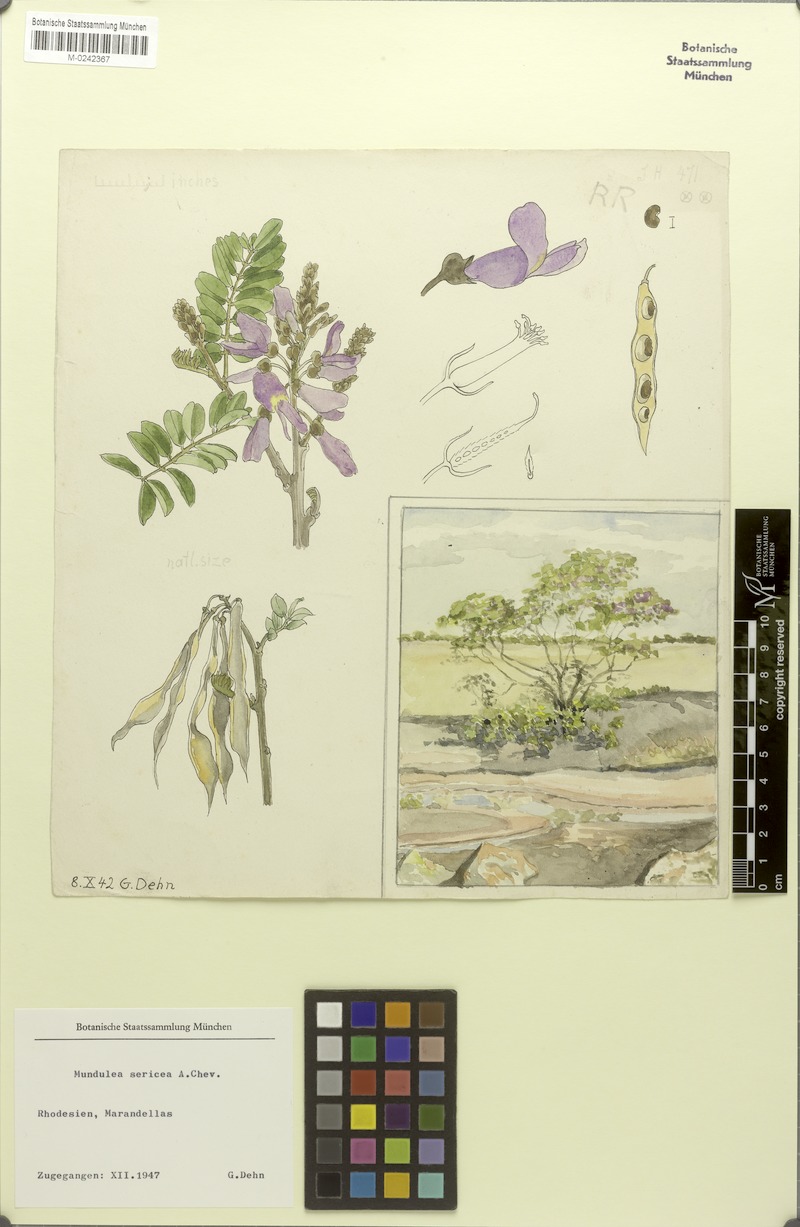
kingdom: Plantae
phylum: Tracheophyta
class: Magnoliopsida
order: Fabales
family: Fabaceae
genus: Mundulea
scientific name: Mundulea sericea
